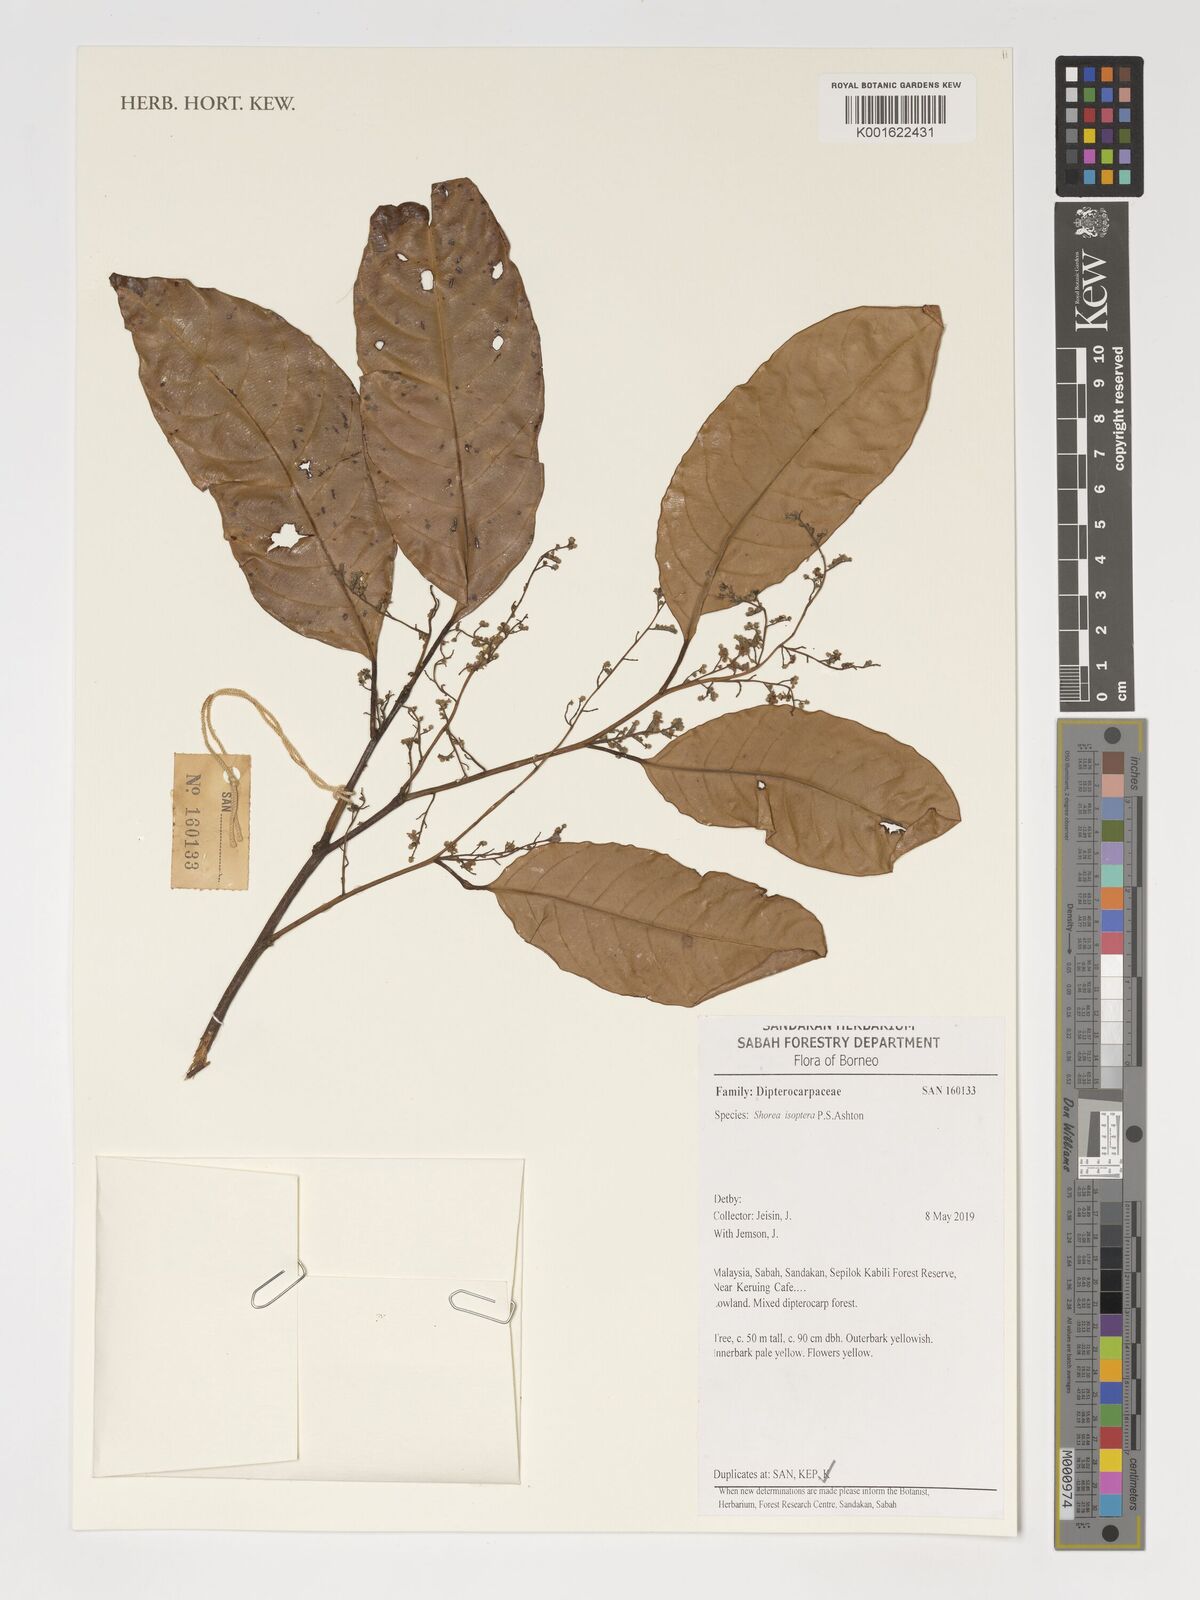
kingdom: Plantae
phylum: Tracheophyta
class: Magnoliopsida
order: Malvales
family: Dipterocarpaceae
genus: Neohopea
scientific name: Neohopea isoptera
